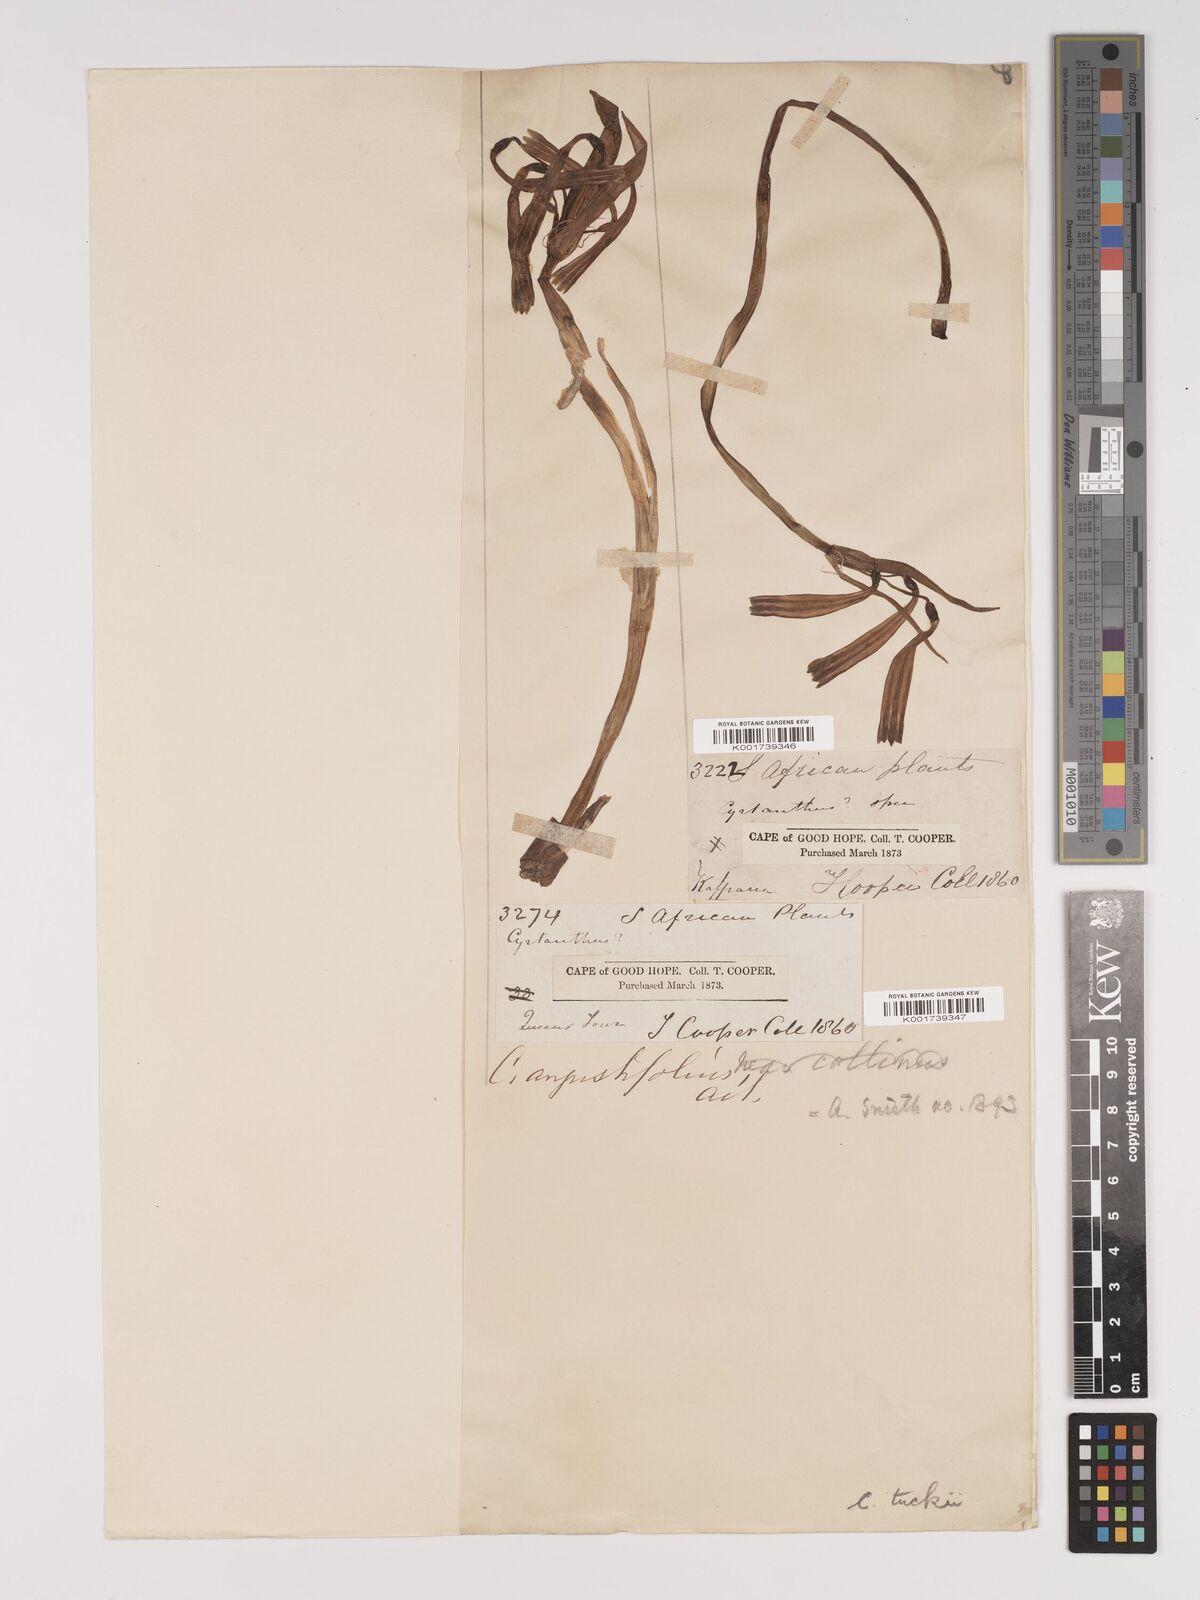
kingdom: Plantae
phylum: Tracheophyta
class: Liliopsida
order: Asparagales
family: Amaryllidaceae
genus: Cyrtanthus
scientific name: Cyrtanthus tuckii
